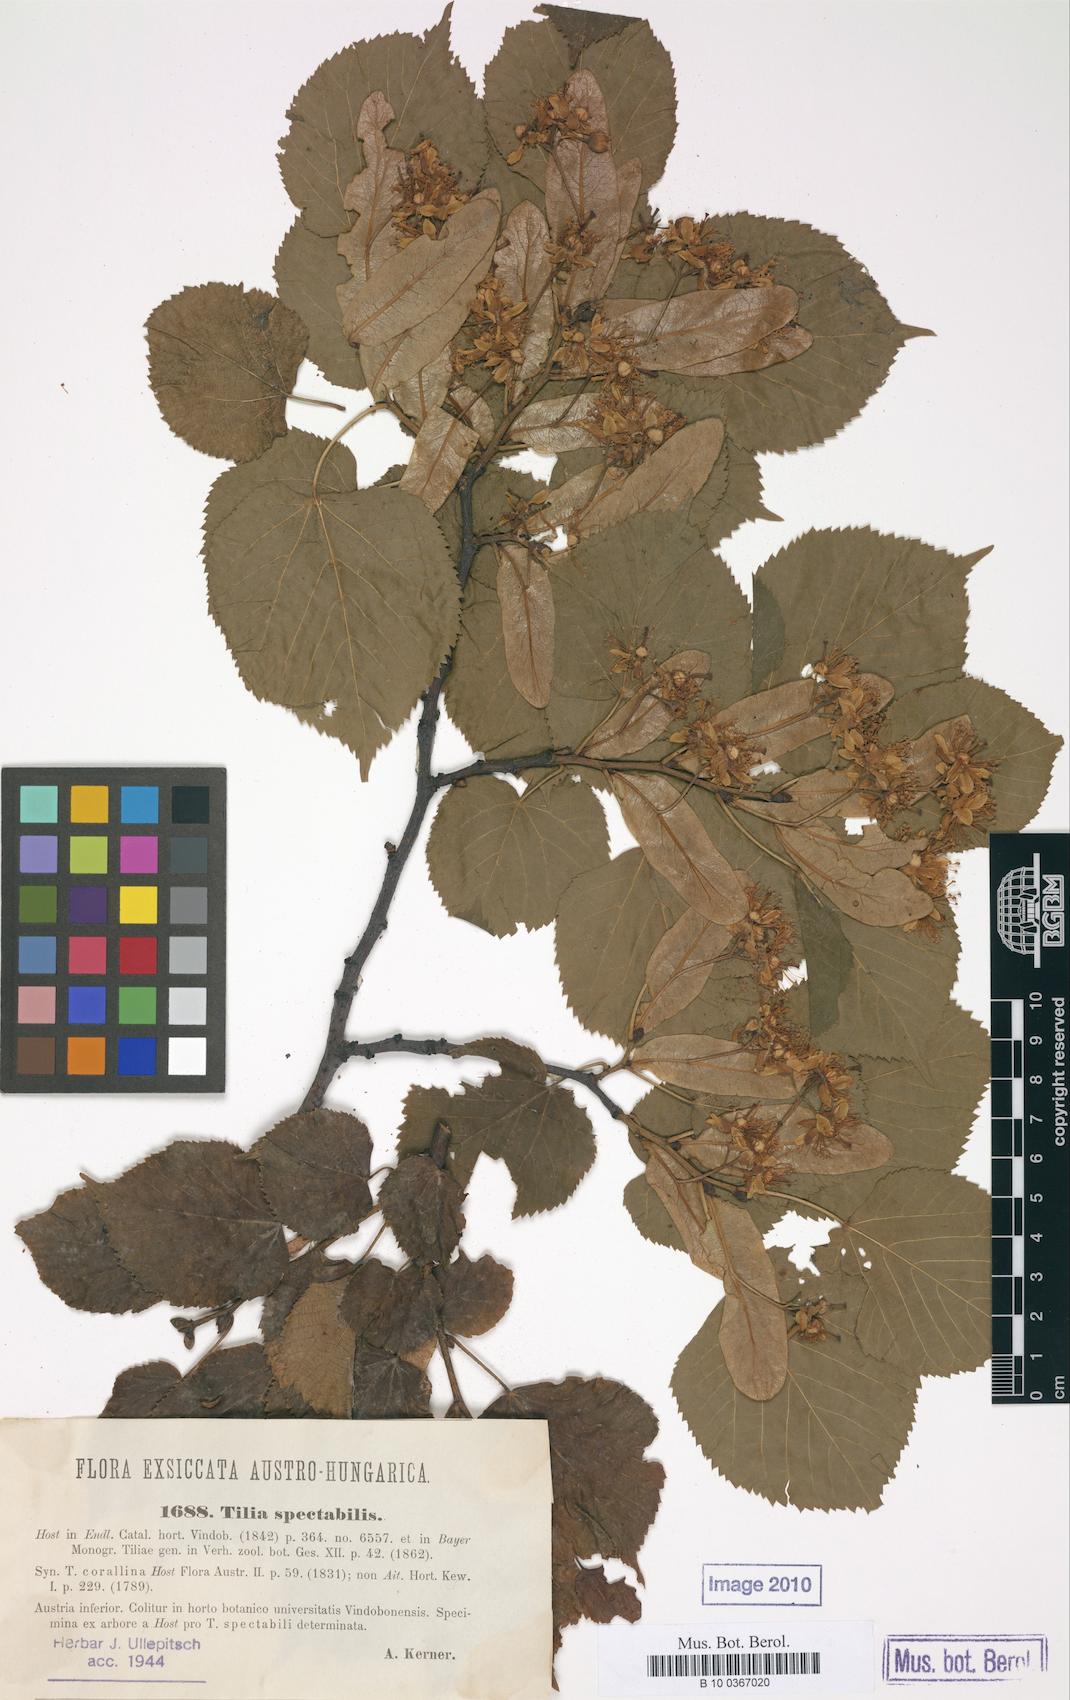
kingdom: Plantae
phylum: Tracheophyta
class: Magnoliopsida
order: Malvales
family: Malvaceae
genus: Tilia
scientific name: Tilia platyphyllos
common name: Large-leaved lime
